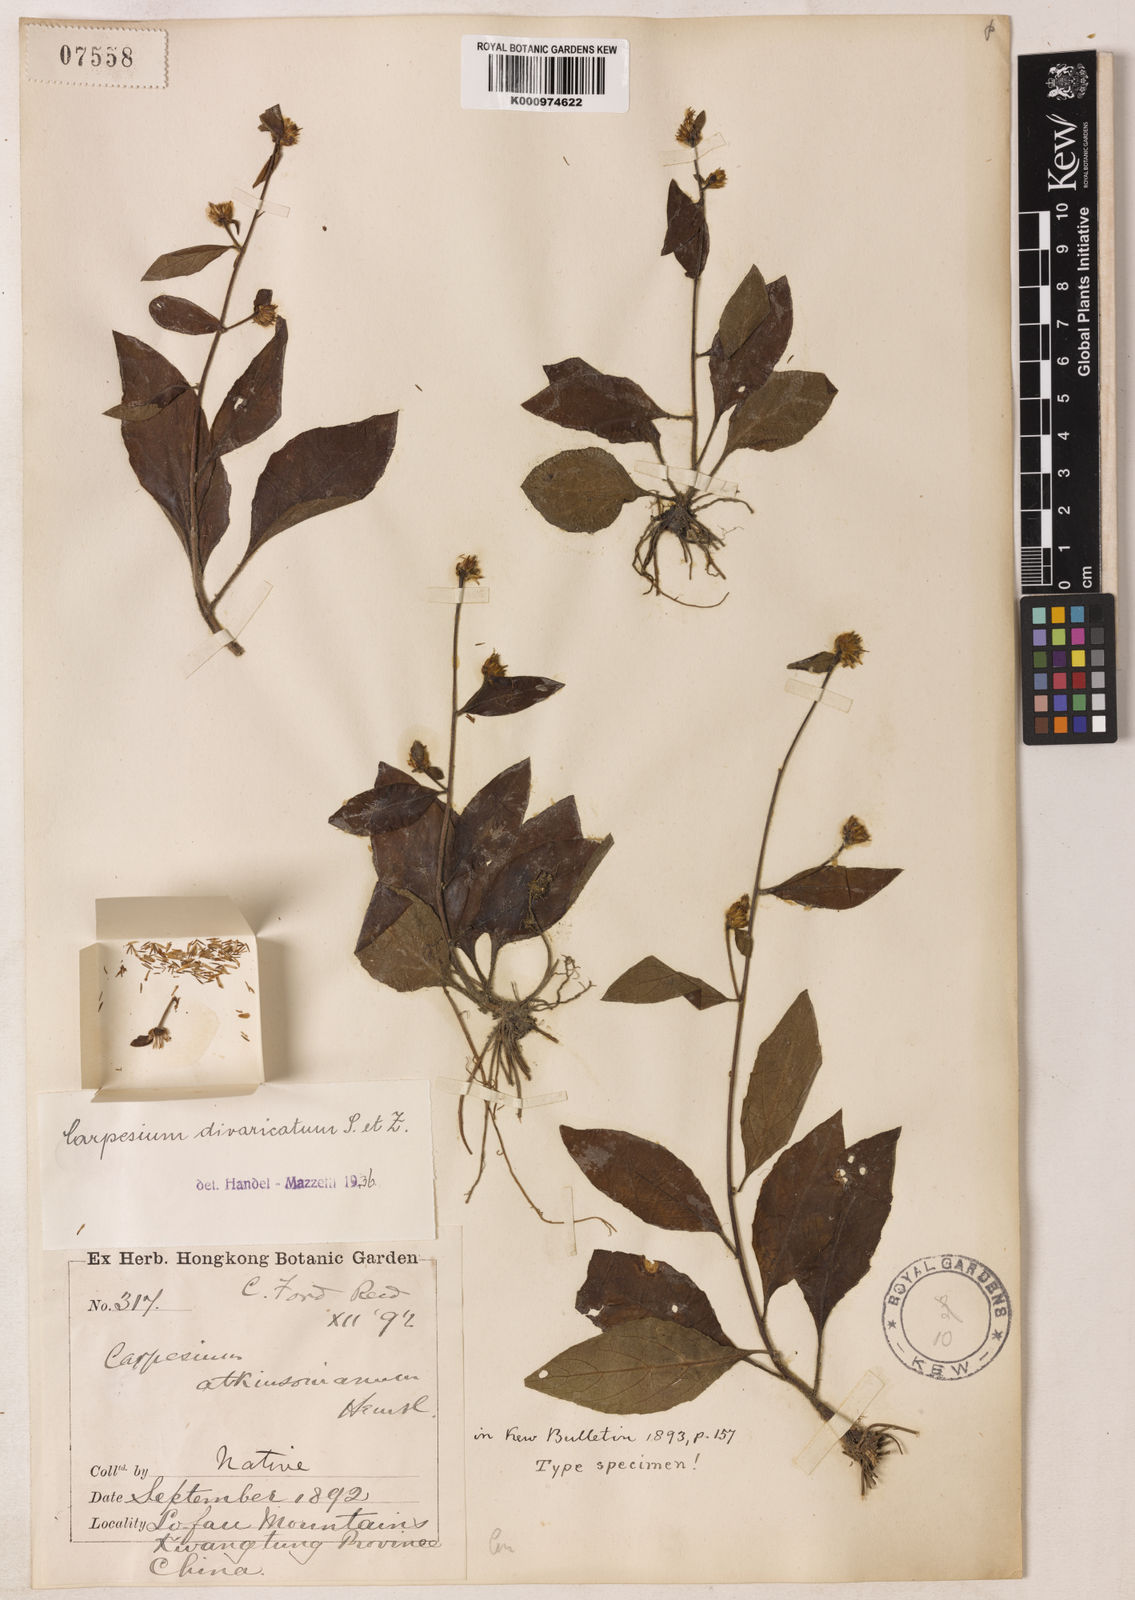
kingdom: Plantae
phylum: Tracheophyta
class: Magnoliopsida
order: Asterales
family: Asteraceae
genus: Carpesium
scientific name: Carpesium divaricatum
